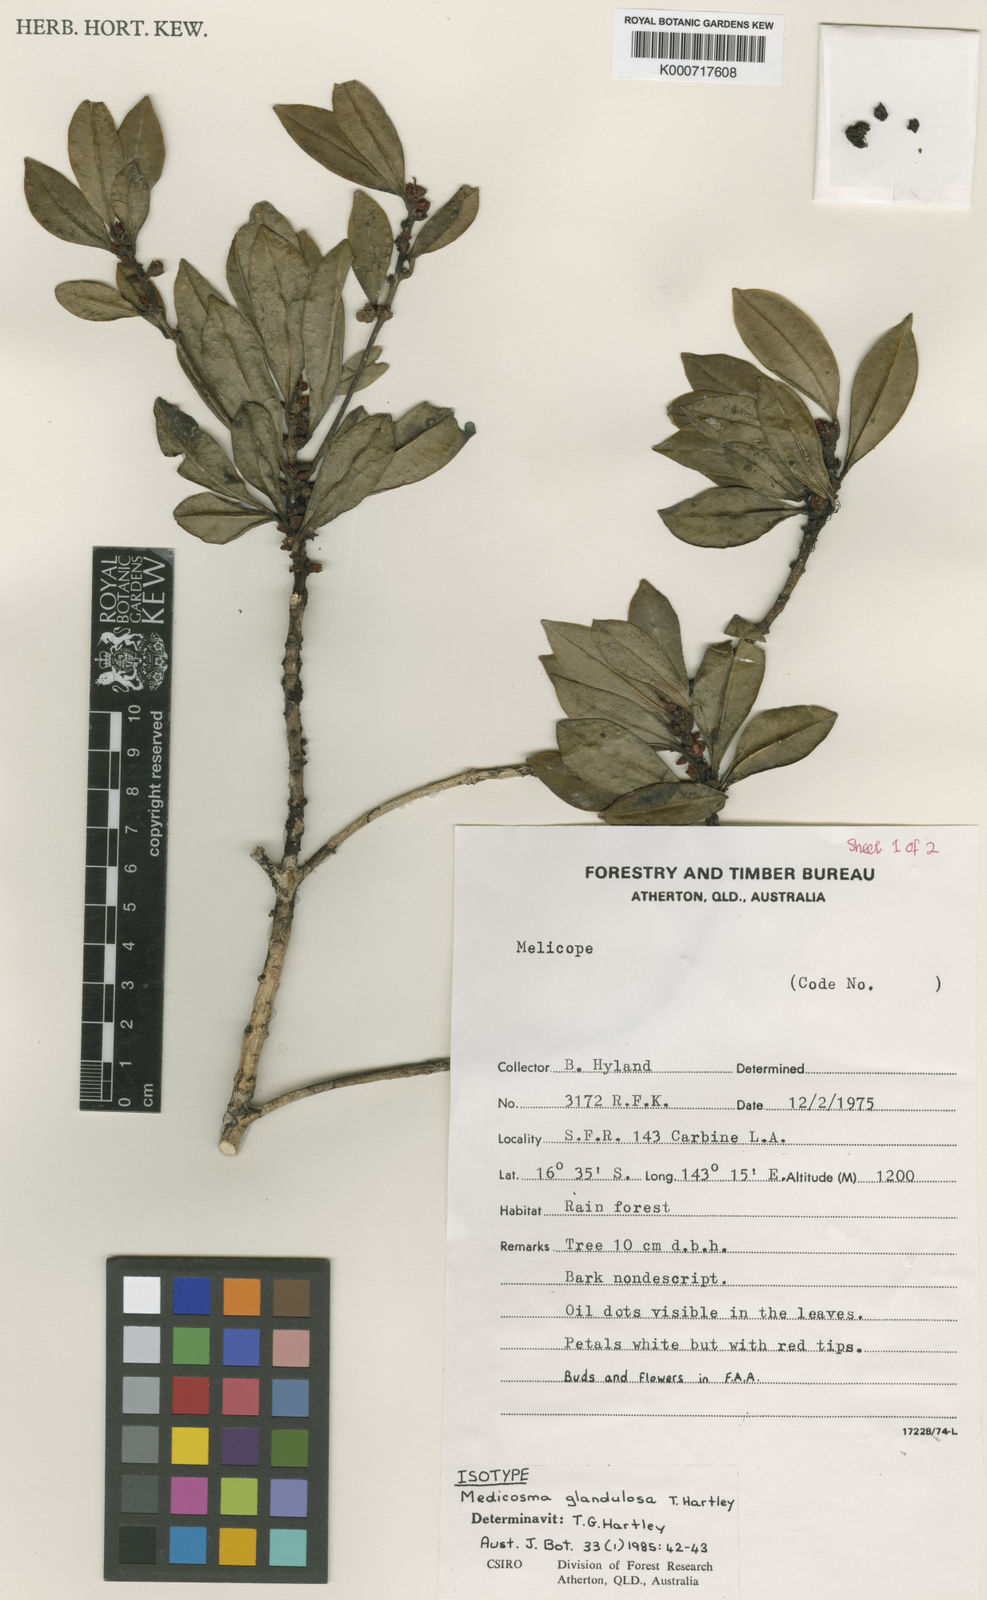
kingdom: Plantae
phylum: Tracheophyta
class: Magnoliopsida
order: Sapindales
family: Rutaceae
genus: Medicosma
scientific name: Medicosma glandulosa
